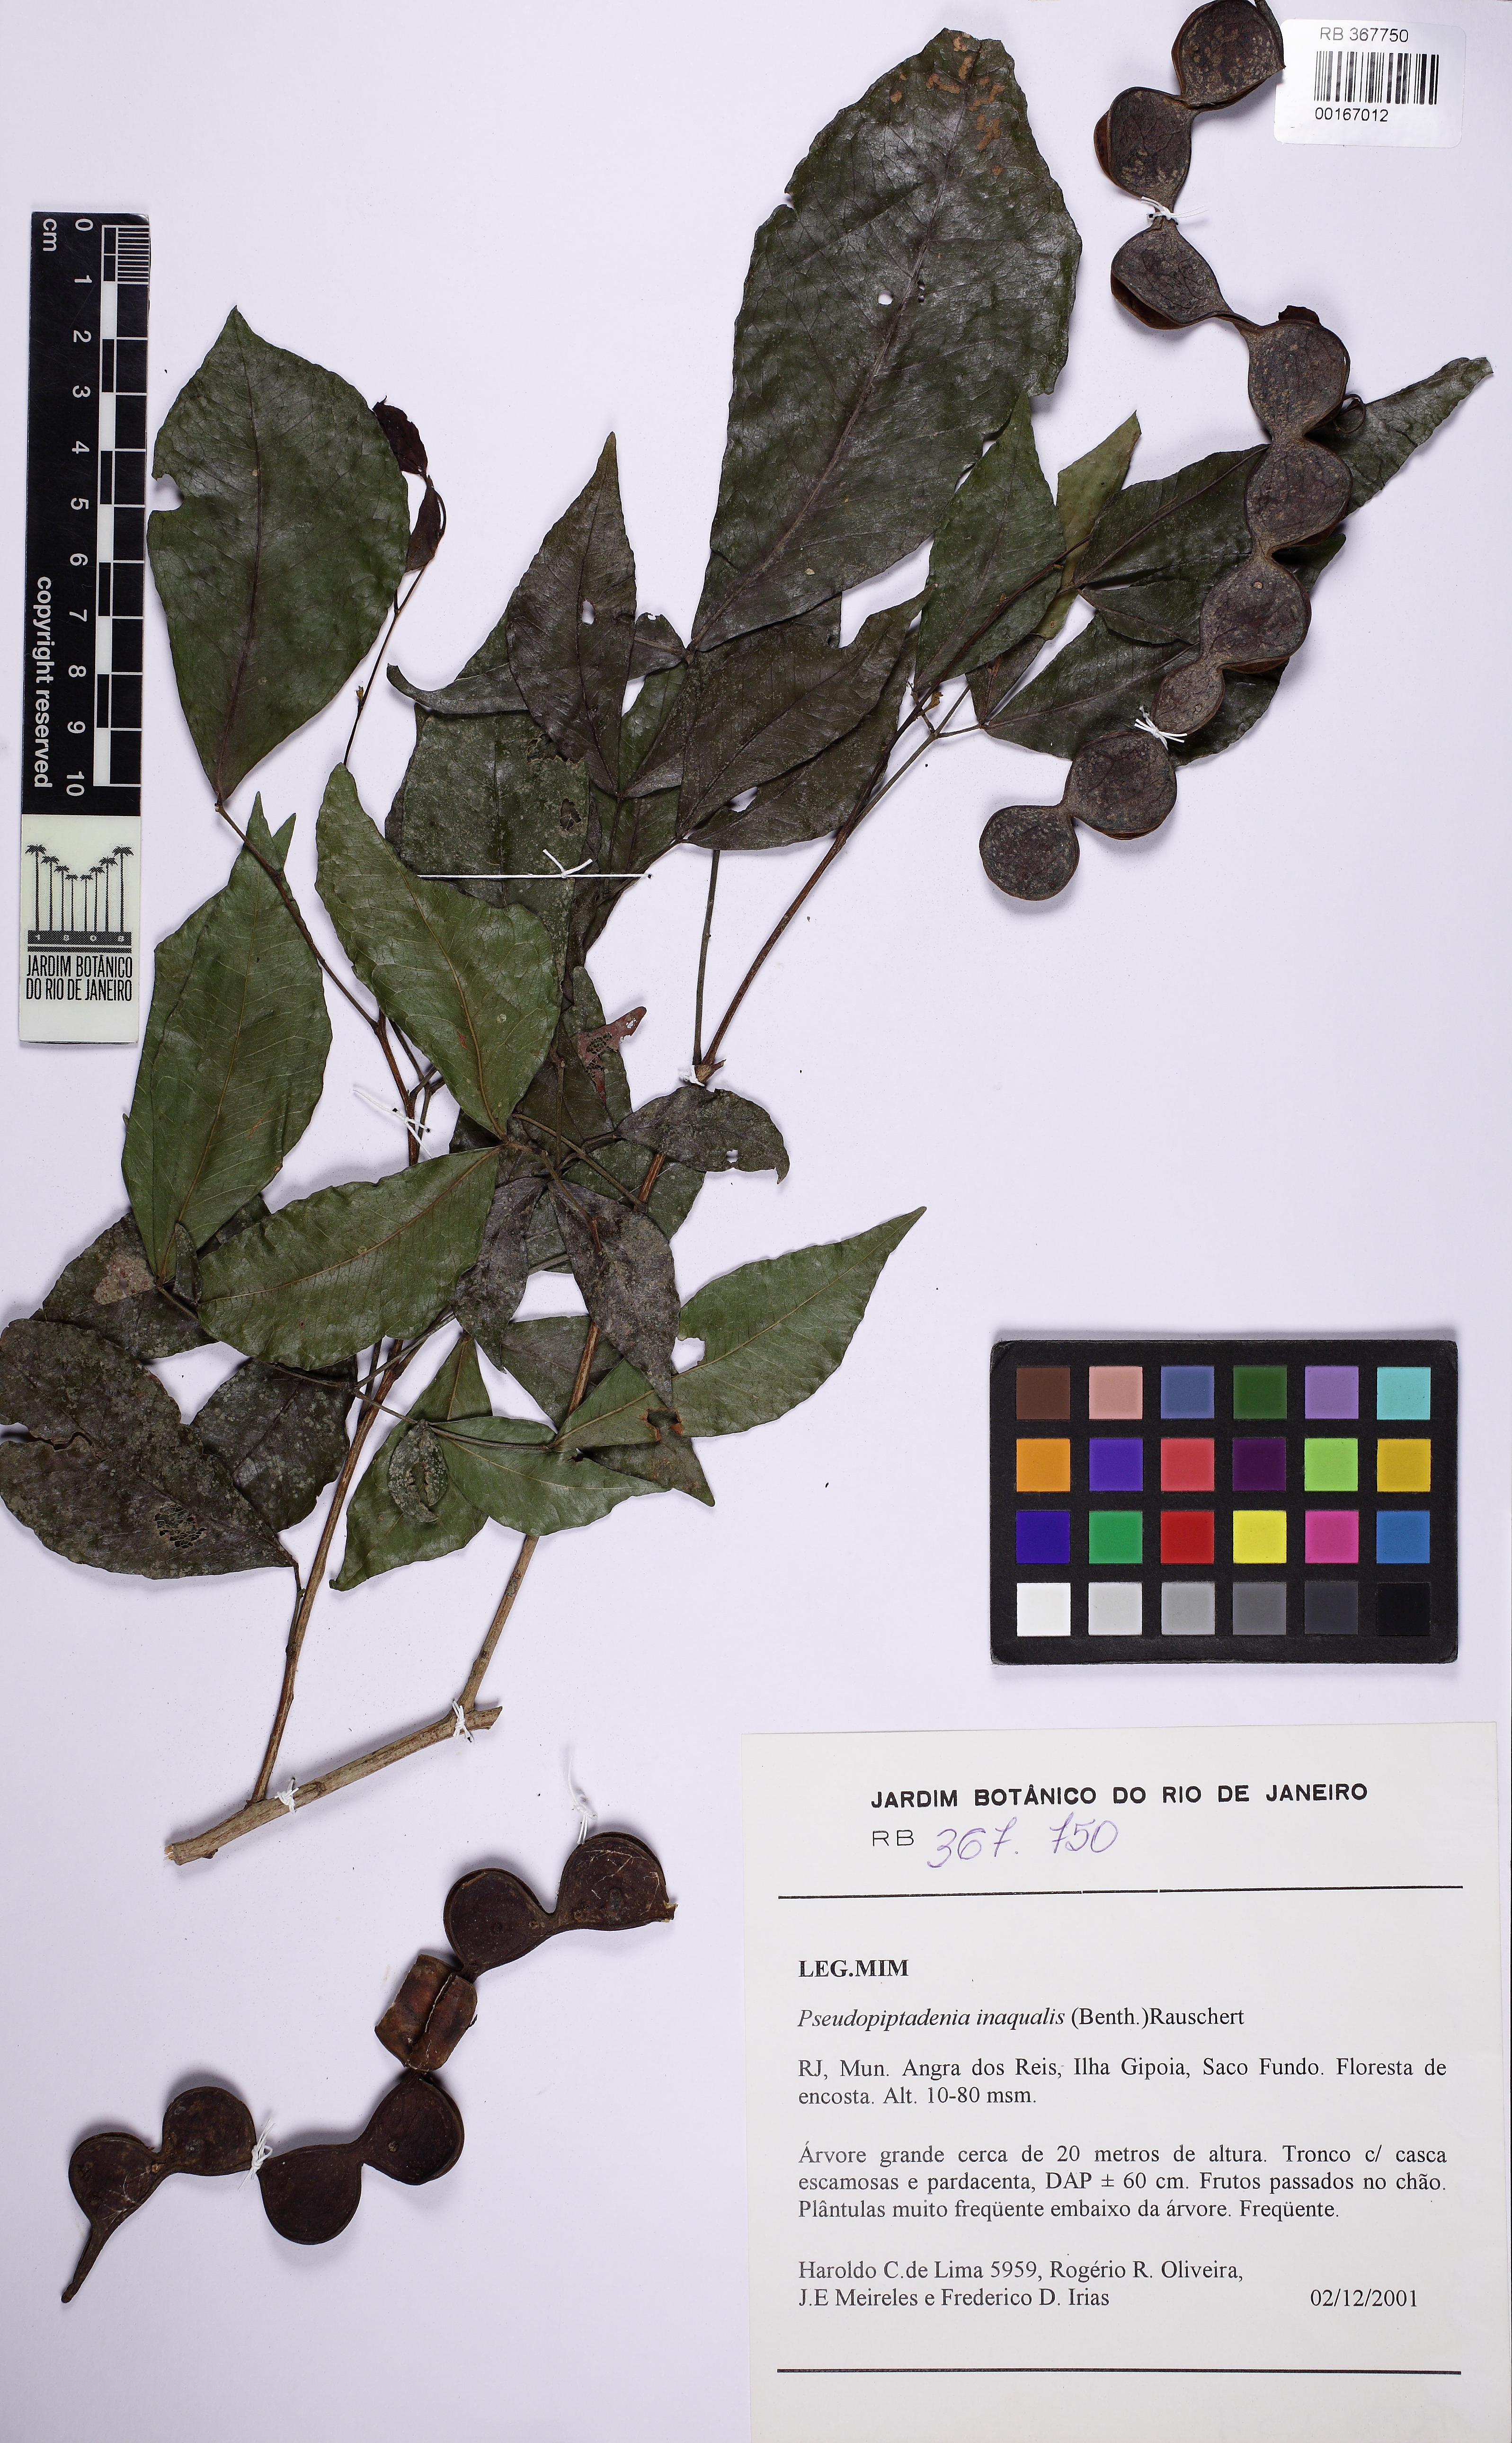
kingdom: Plantae
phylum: Tracheophyta
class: Magnoliopsida
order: Fabales
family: Fabaceae
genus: Pseudopiptadenia
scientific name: Pseudopiptadenia inaequalis
